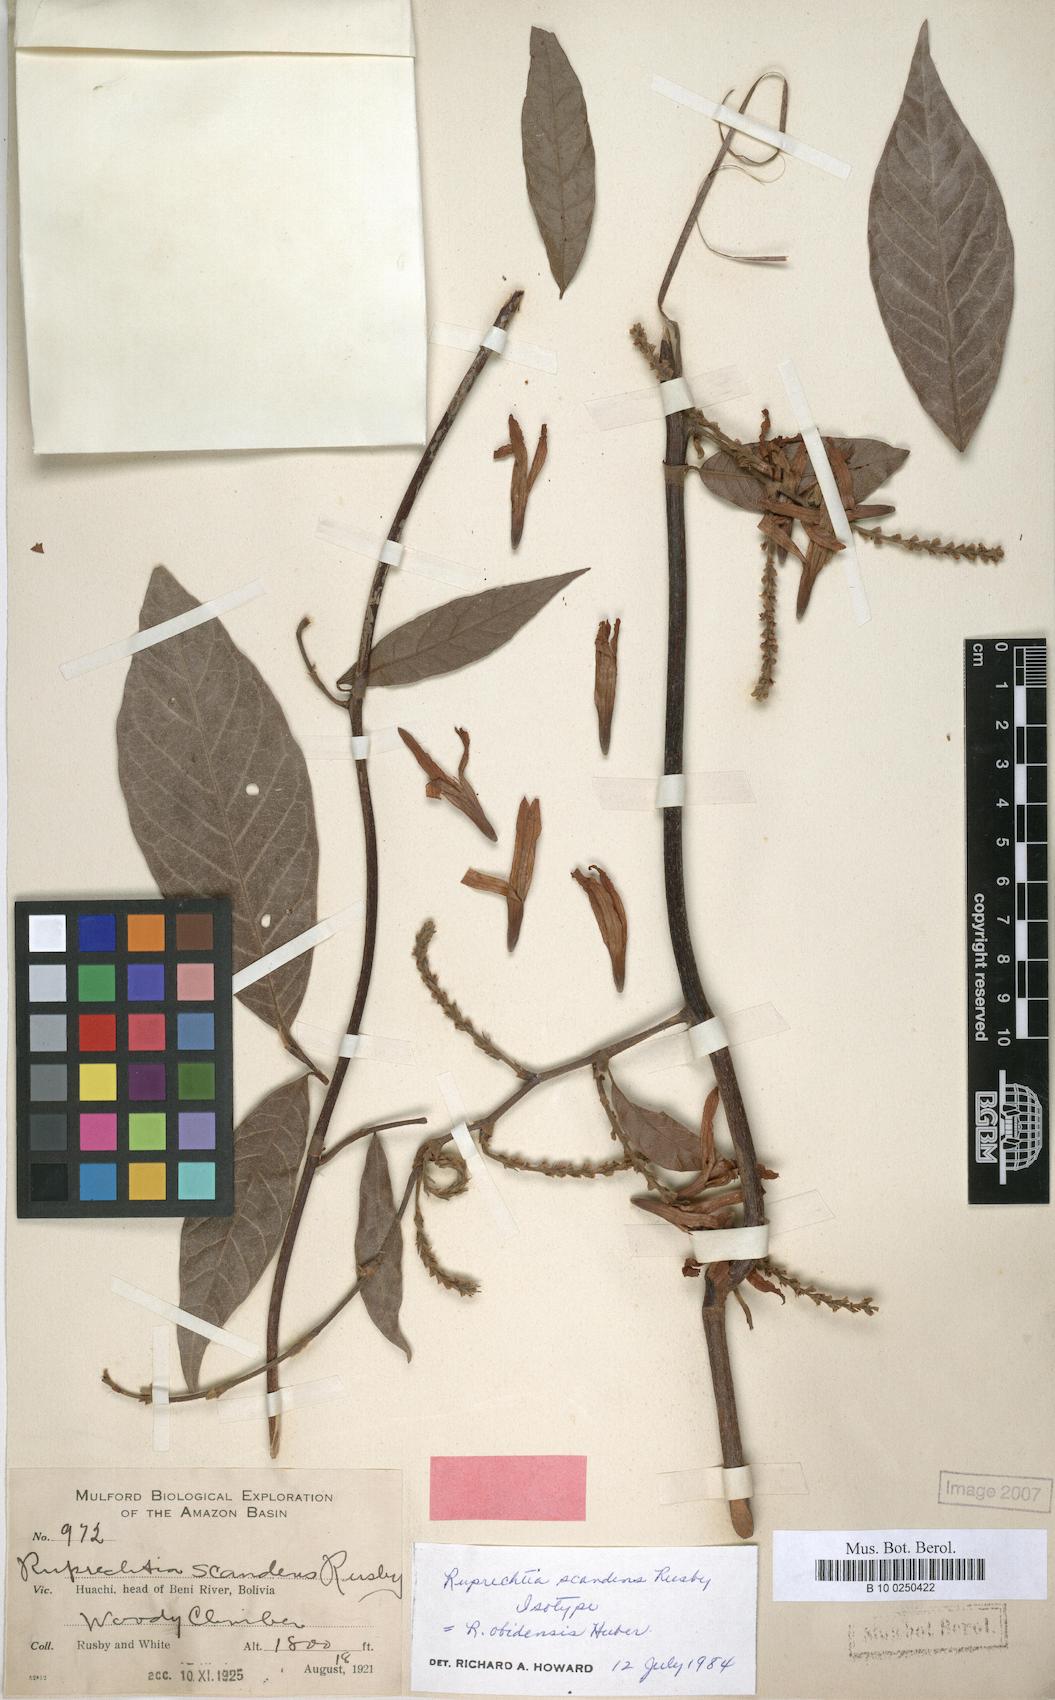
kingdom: Plantae
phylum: Tracheophyta
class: Magnoliopsida
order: Caryophyllales
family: Polygonaceae
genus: Magoniella
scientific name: Magoniella obidensis
